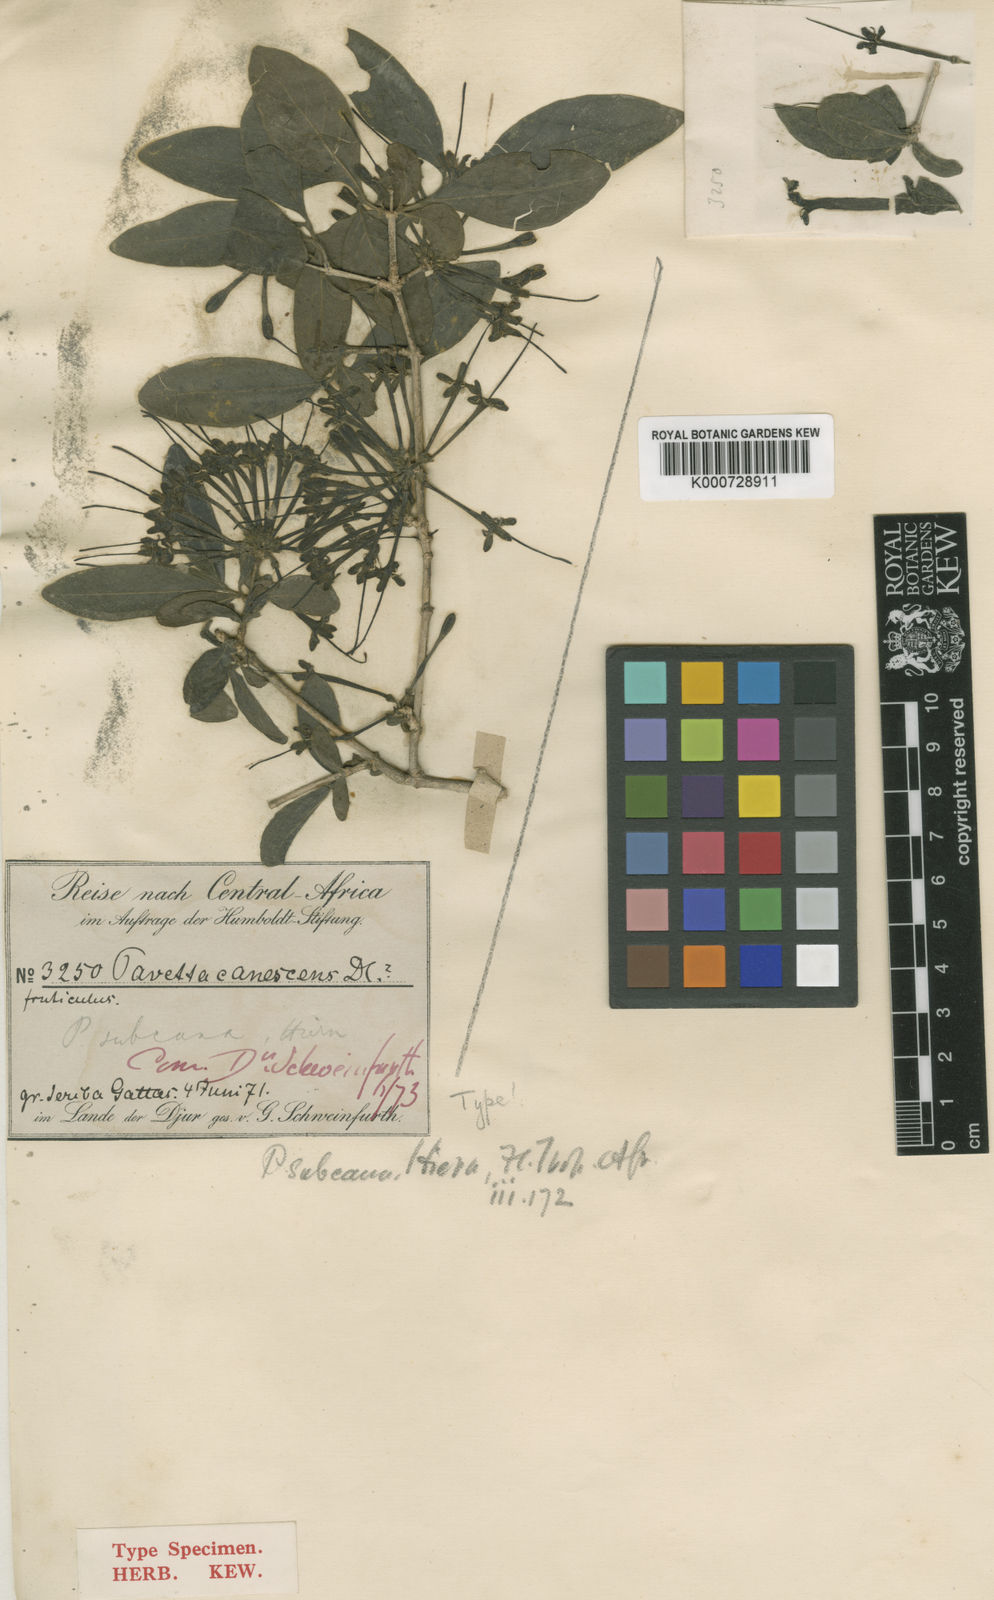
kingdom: Plantae
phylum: Tracheophyta
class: Magnoliopsida
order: Gentianales
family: Rubiaceae
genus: Pavetta
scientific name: Pavetta subcana
